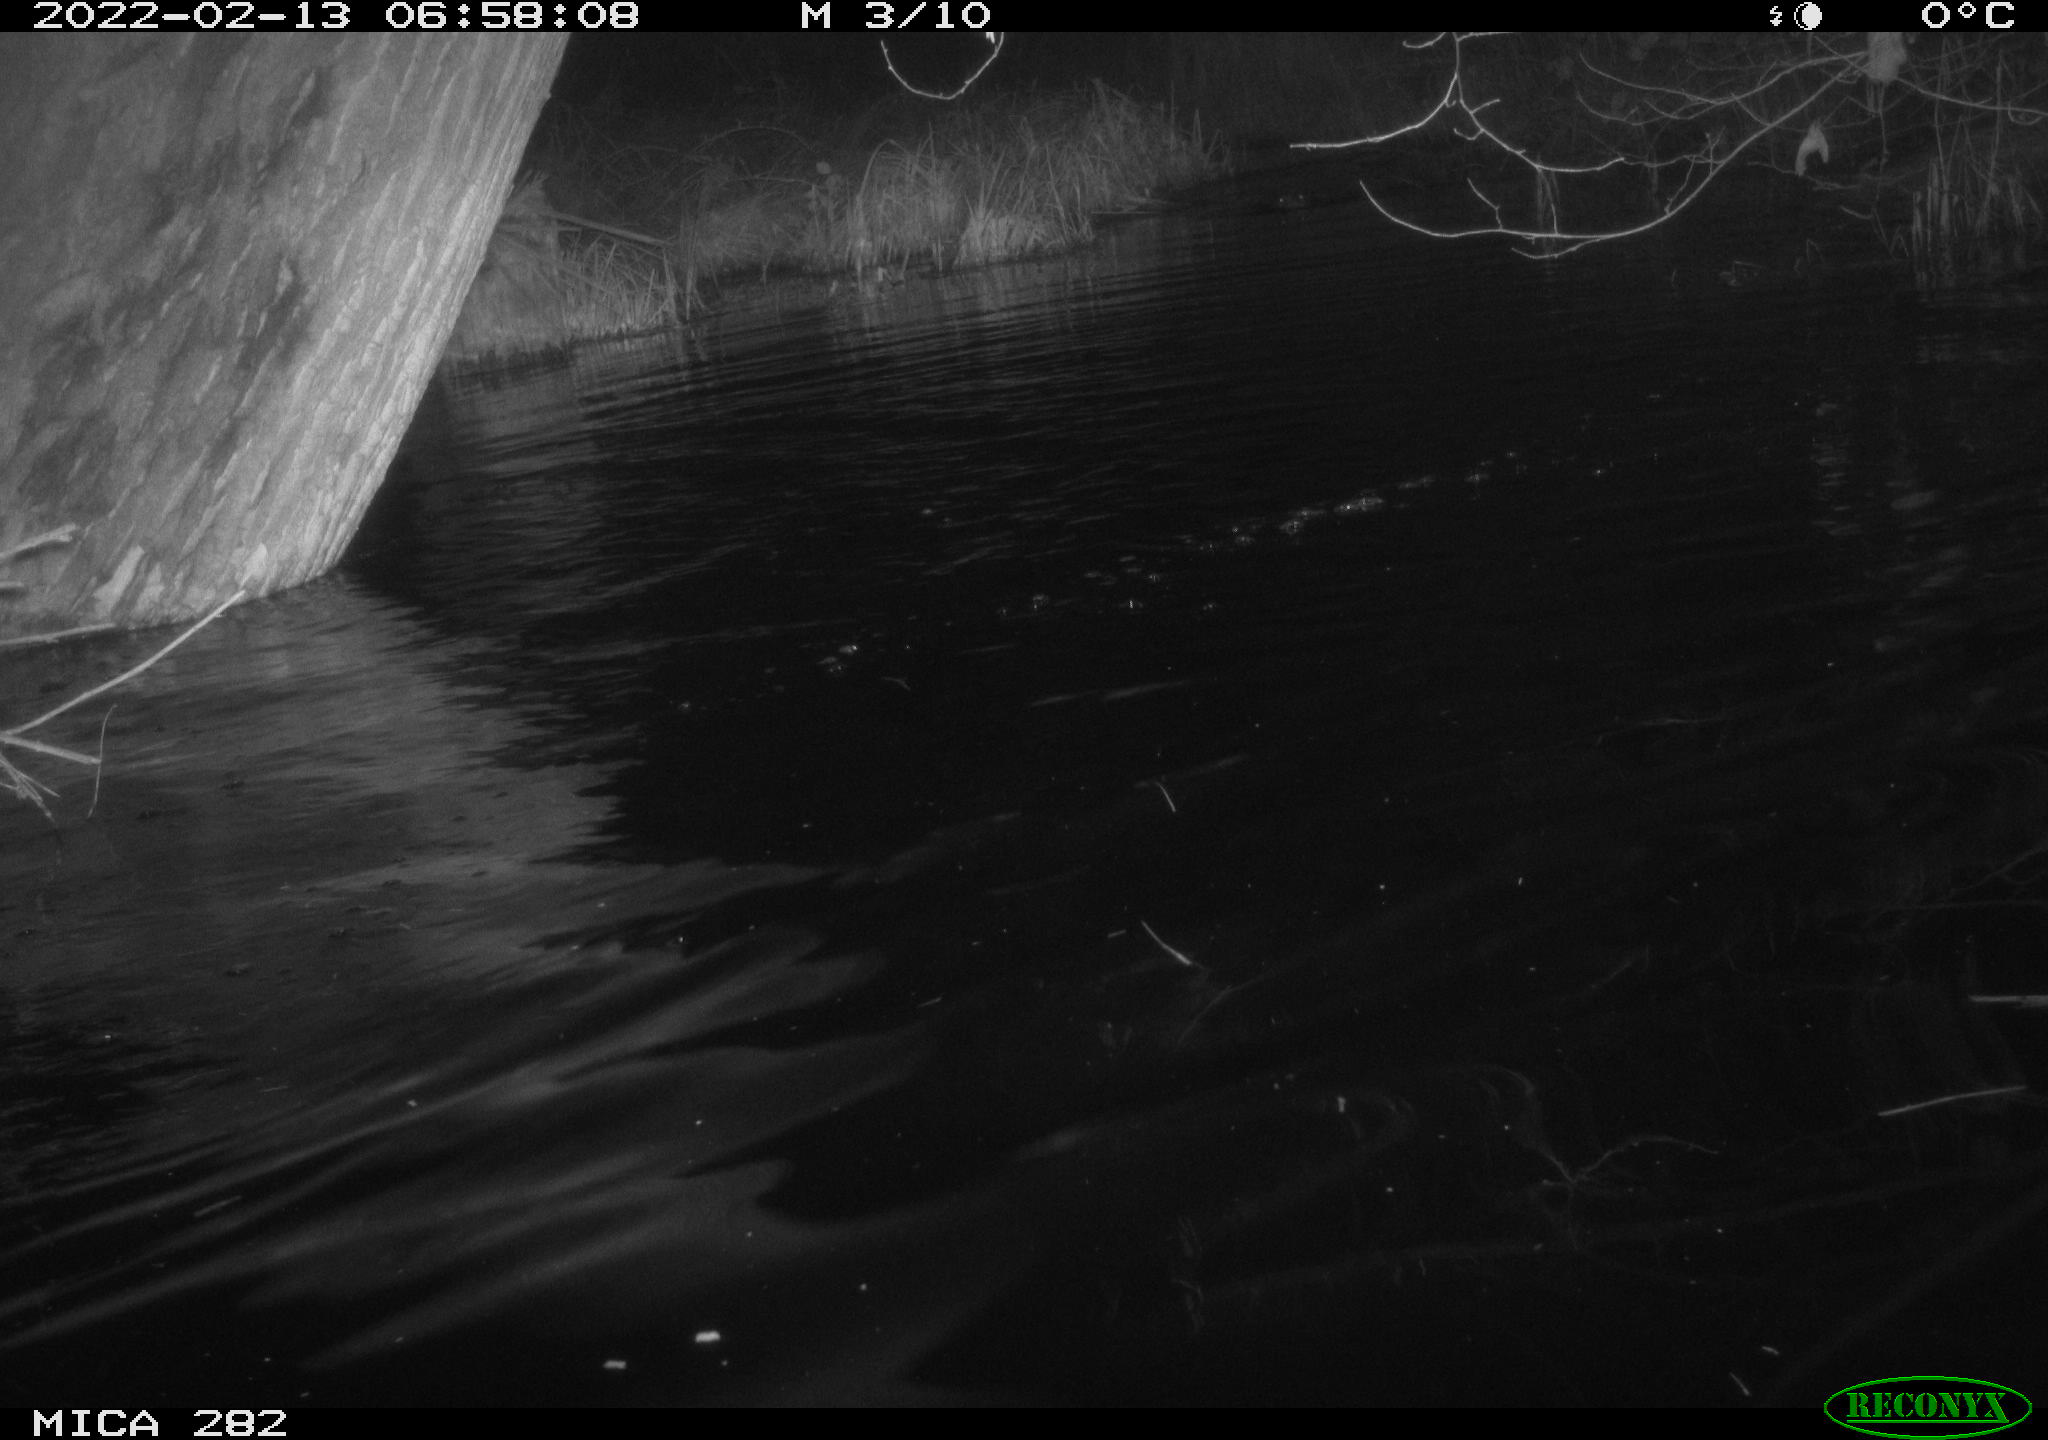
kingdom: Animalia
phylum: Chordata
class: Aves
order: Anseriformes
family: Anatidae
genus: Anas
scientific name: Anas platyrhynchos
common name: Mallard
